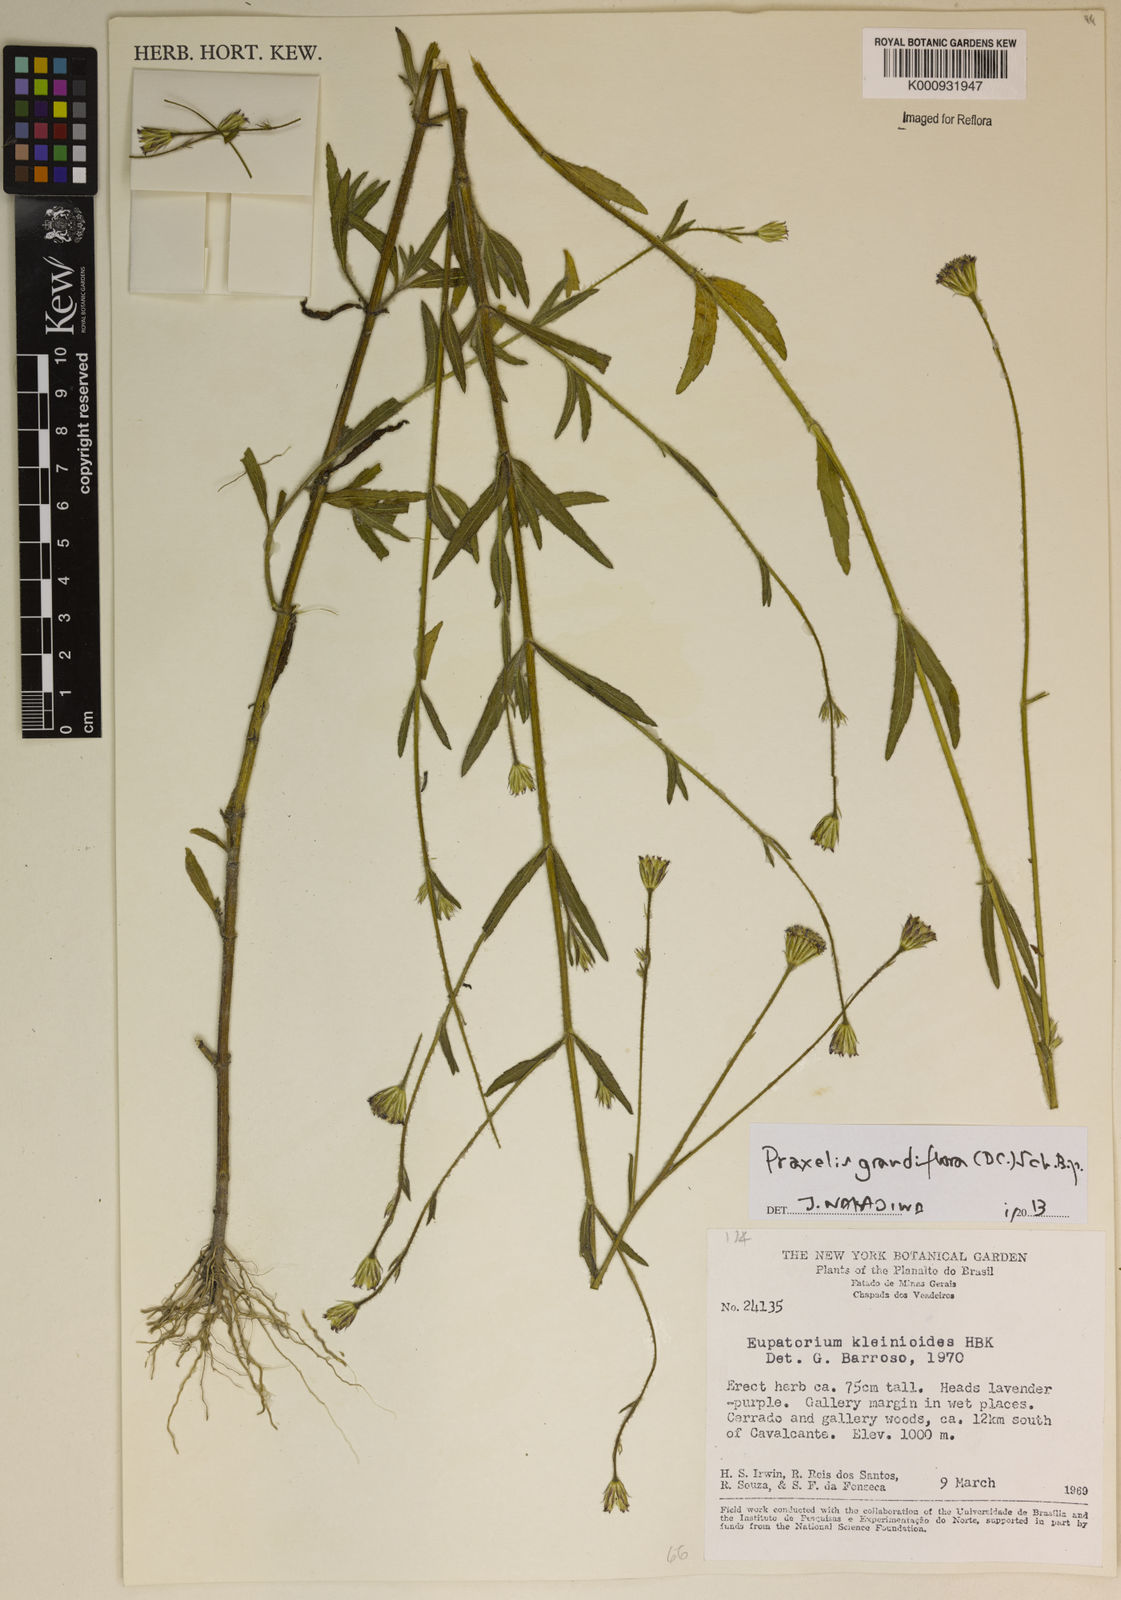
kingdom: Plantae
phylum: Tracheophyta
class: Magnoliopsida
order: Asterales
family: Asteraceae
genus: Praxelis
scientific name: Praxelis grandiflora
